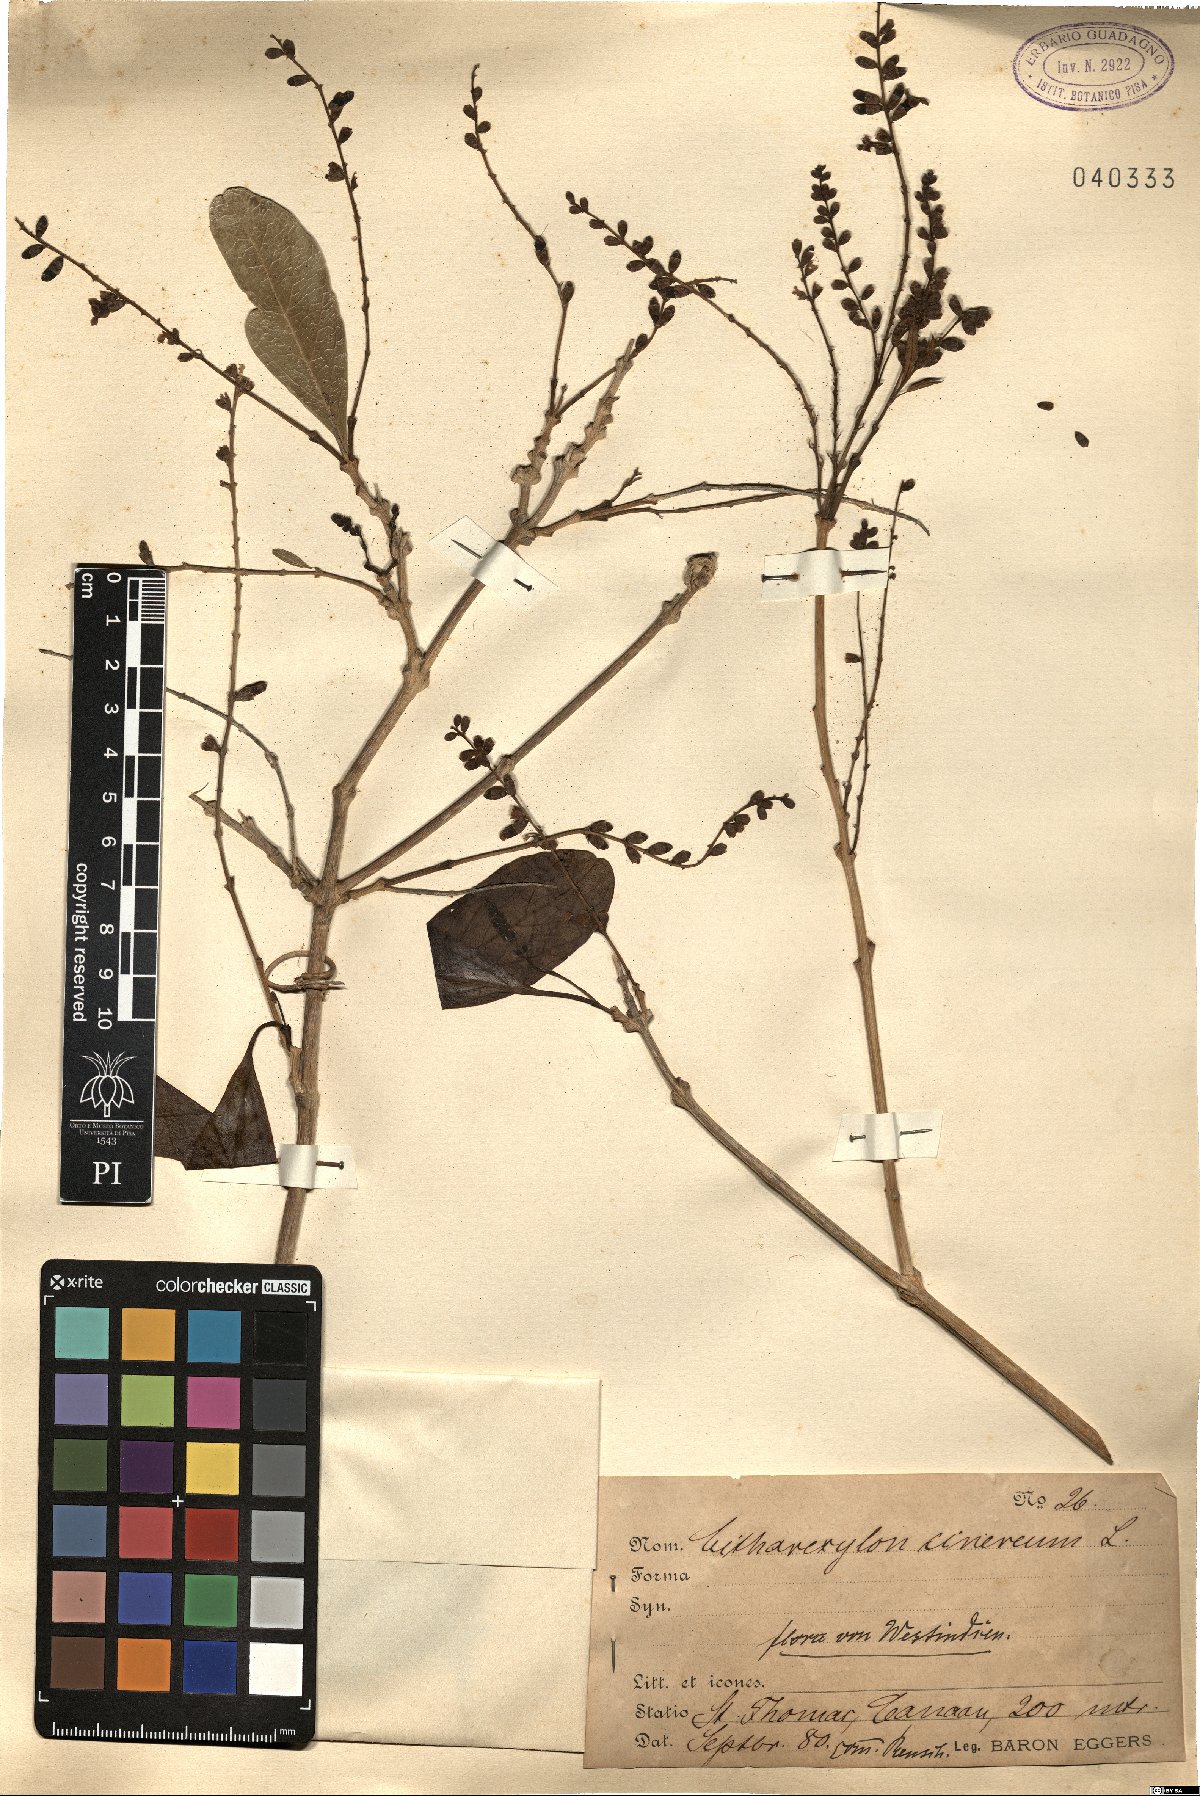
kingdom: Plantae
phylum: Tracheophyta
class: Magnoliopsida
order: Lamiales
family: Verbenaceae
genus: Citharexylum
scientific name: Citharexylum spinosum
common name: Fiddlewood
